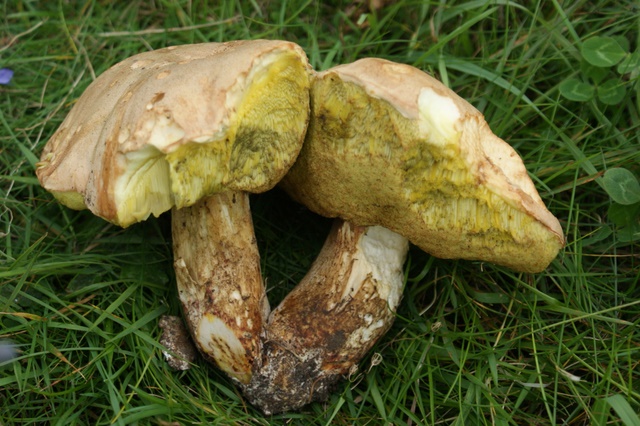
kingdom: Fungi
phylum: Basidiomycota
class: Agaricomycetes
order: Boletales
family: Boletaceae
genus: Hemileccinum
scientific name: Hemileccinum impolitum
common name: bleg rørhat
